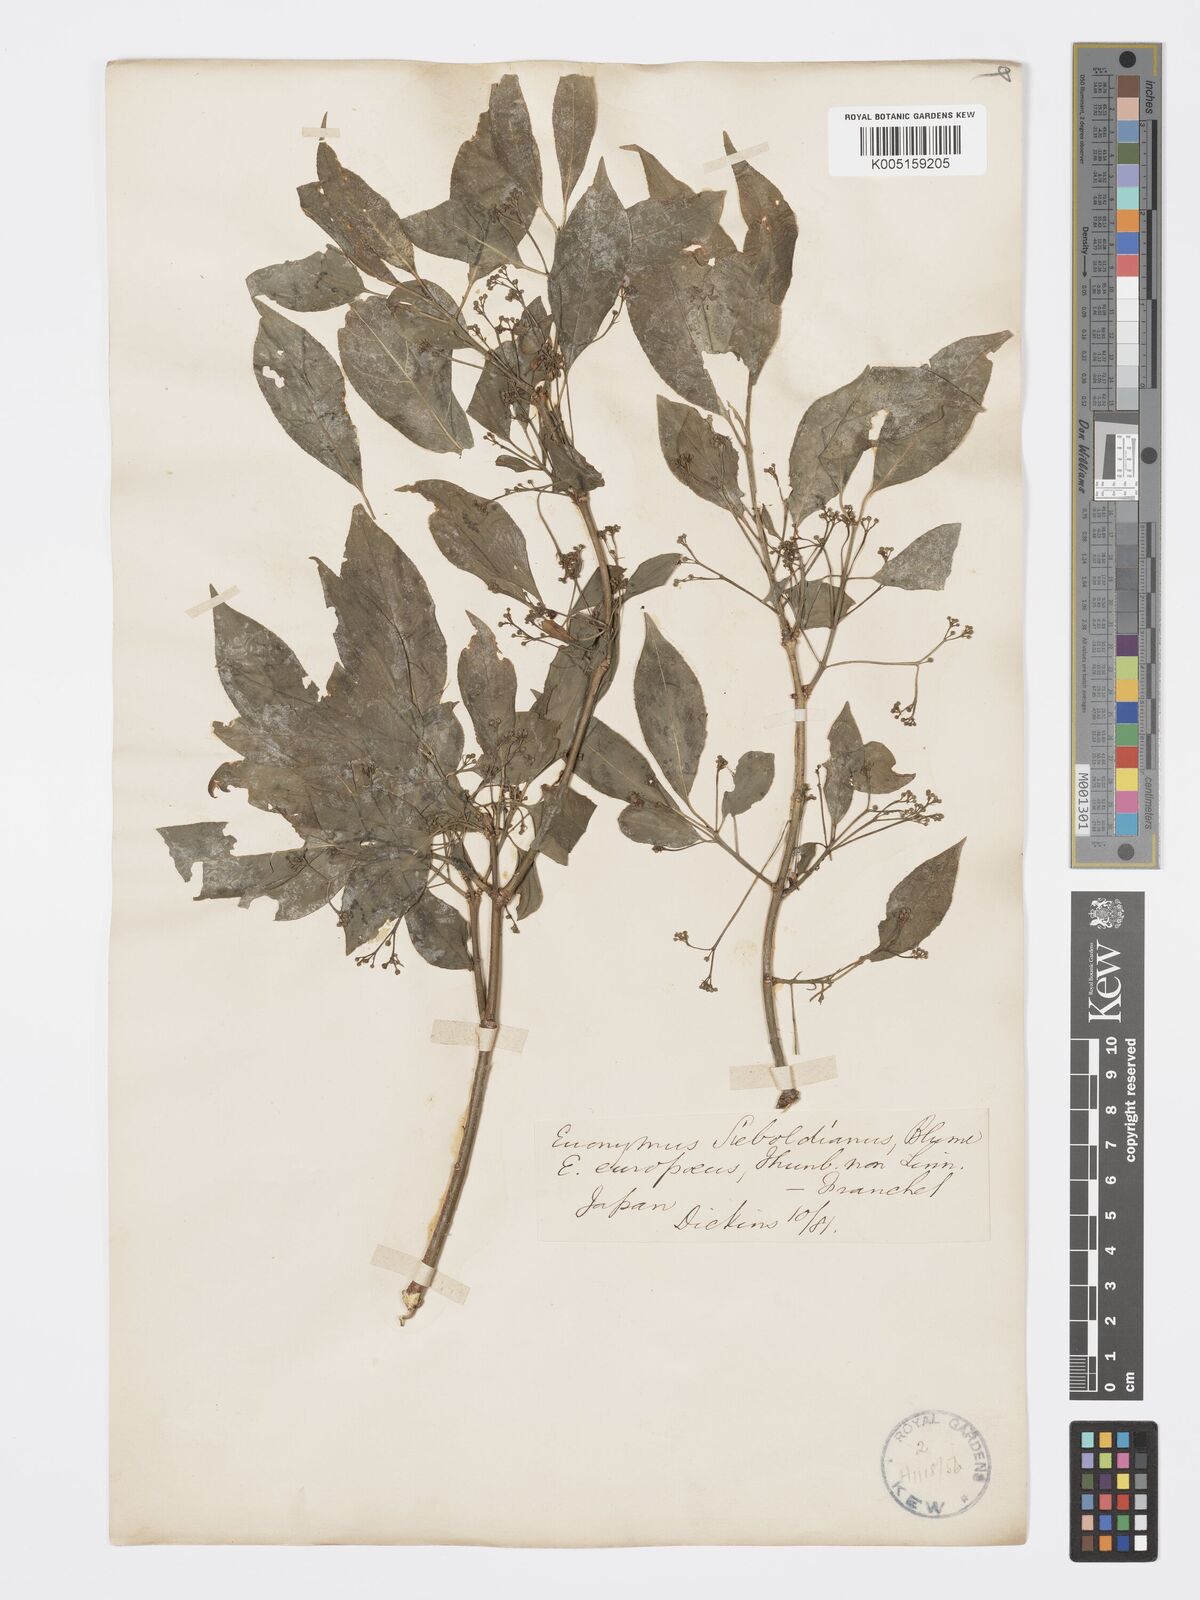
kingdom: Plantae
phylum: Tracheophyta
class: Magnoliopsida
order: Celastrales
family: Celastraceae
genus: Euonymus
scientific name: Euonymus hamiltonianus
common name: Hamilton's spindletree
